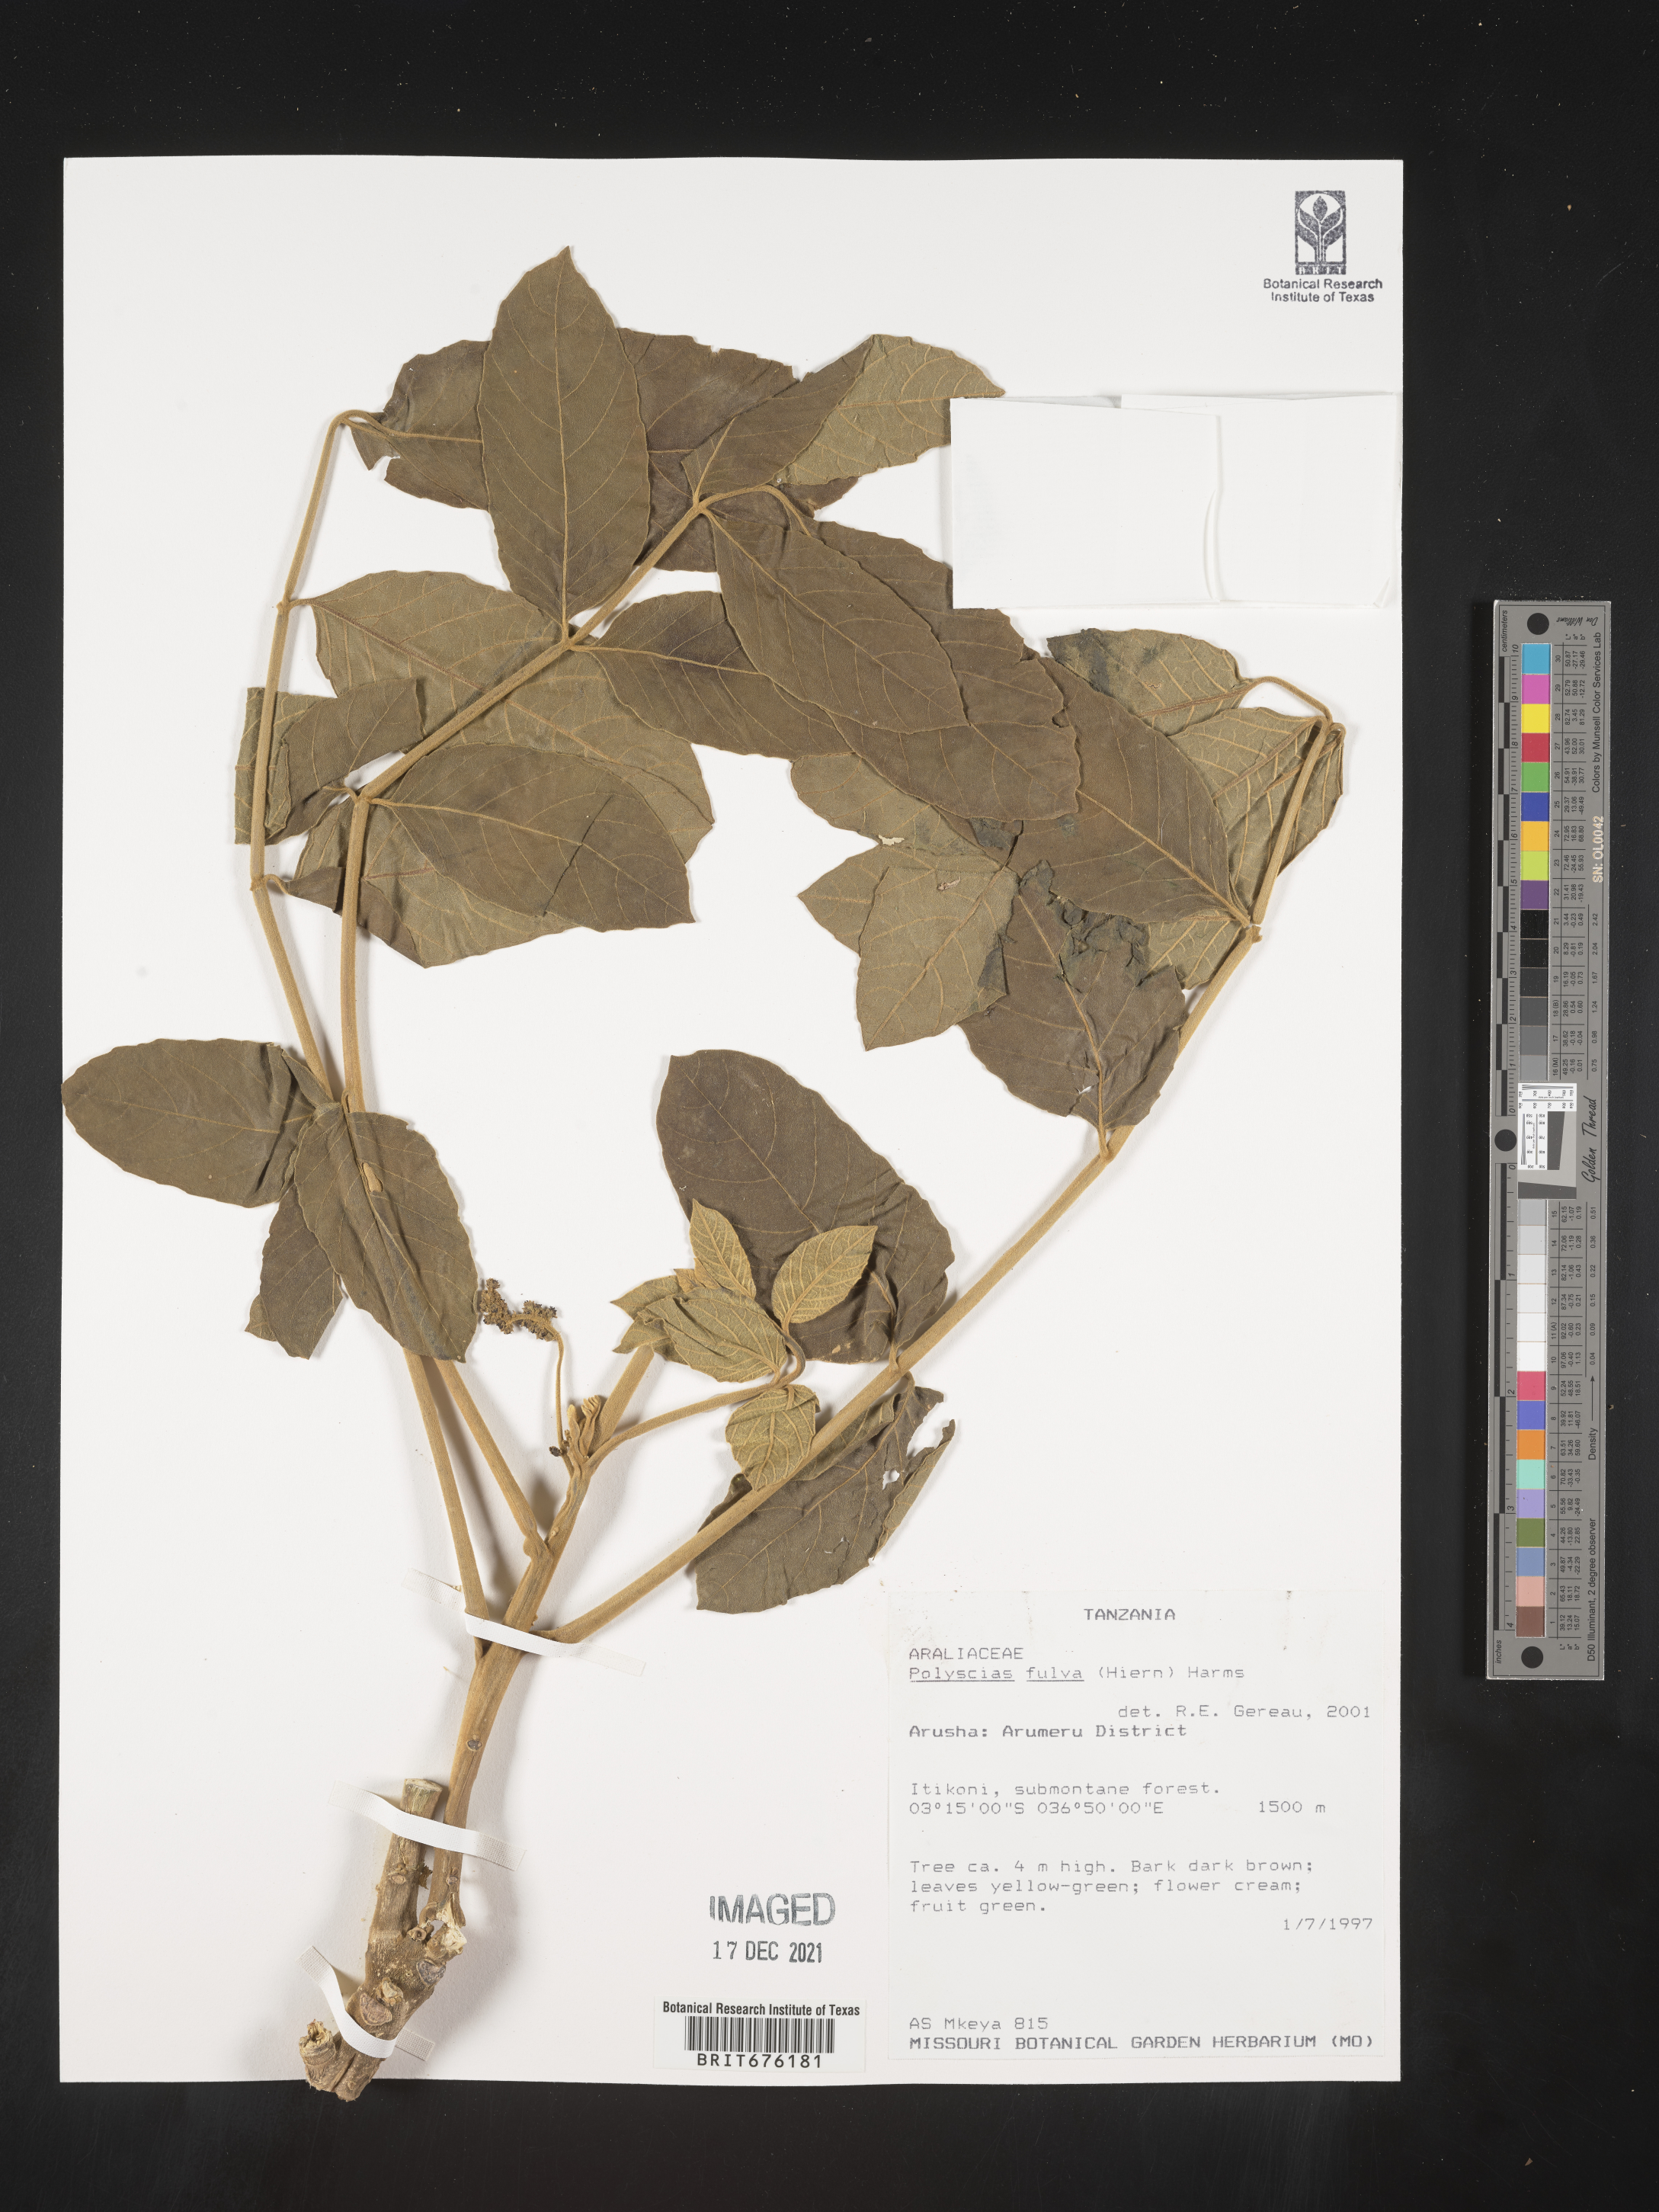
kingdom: Plantae
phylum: Tracheophyta
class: Magnoliopsida
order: Apiales
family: Araliaceae
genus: Polyscias
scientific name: Polyscias
